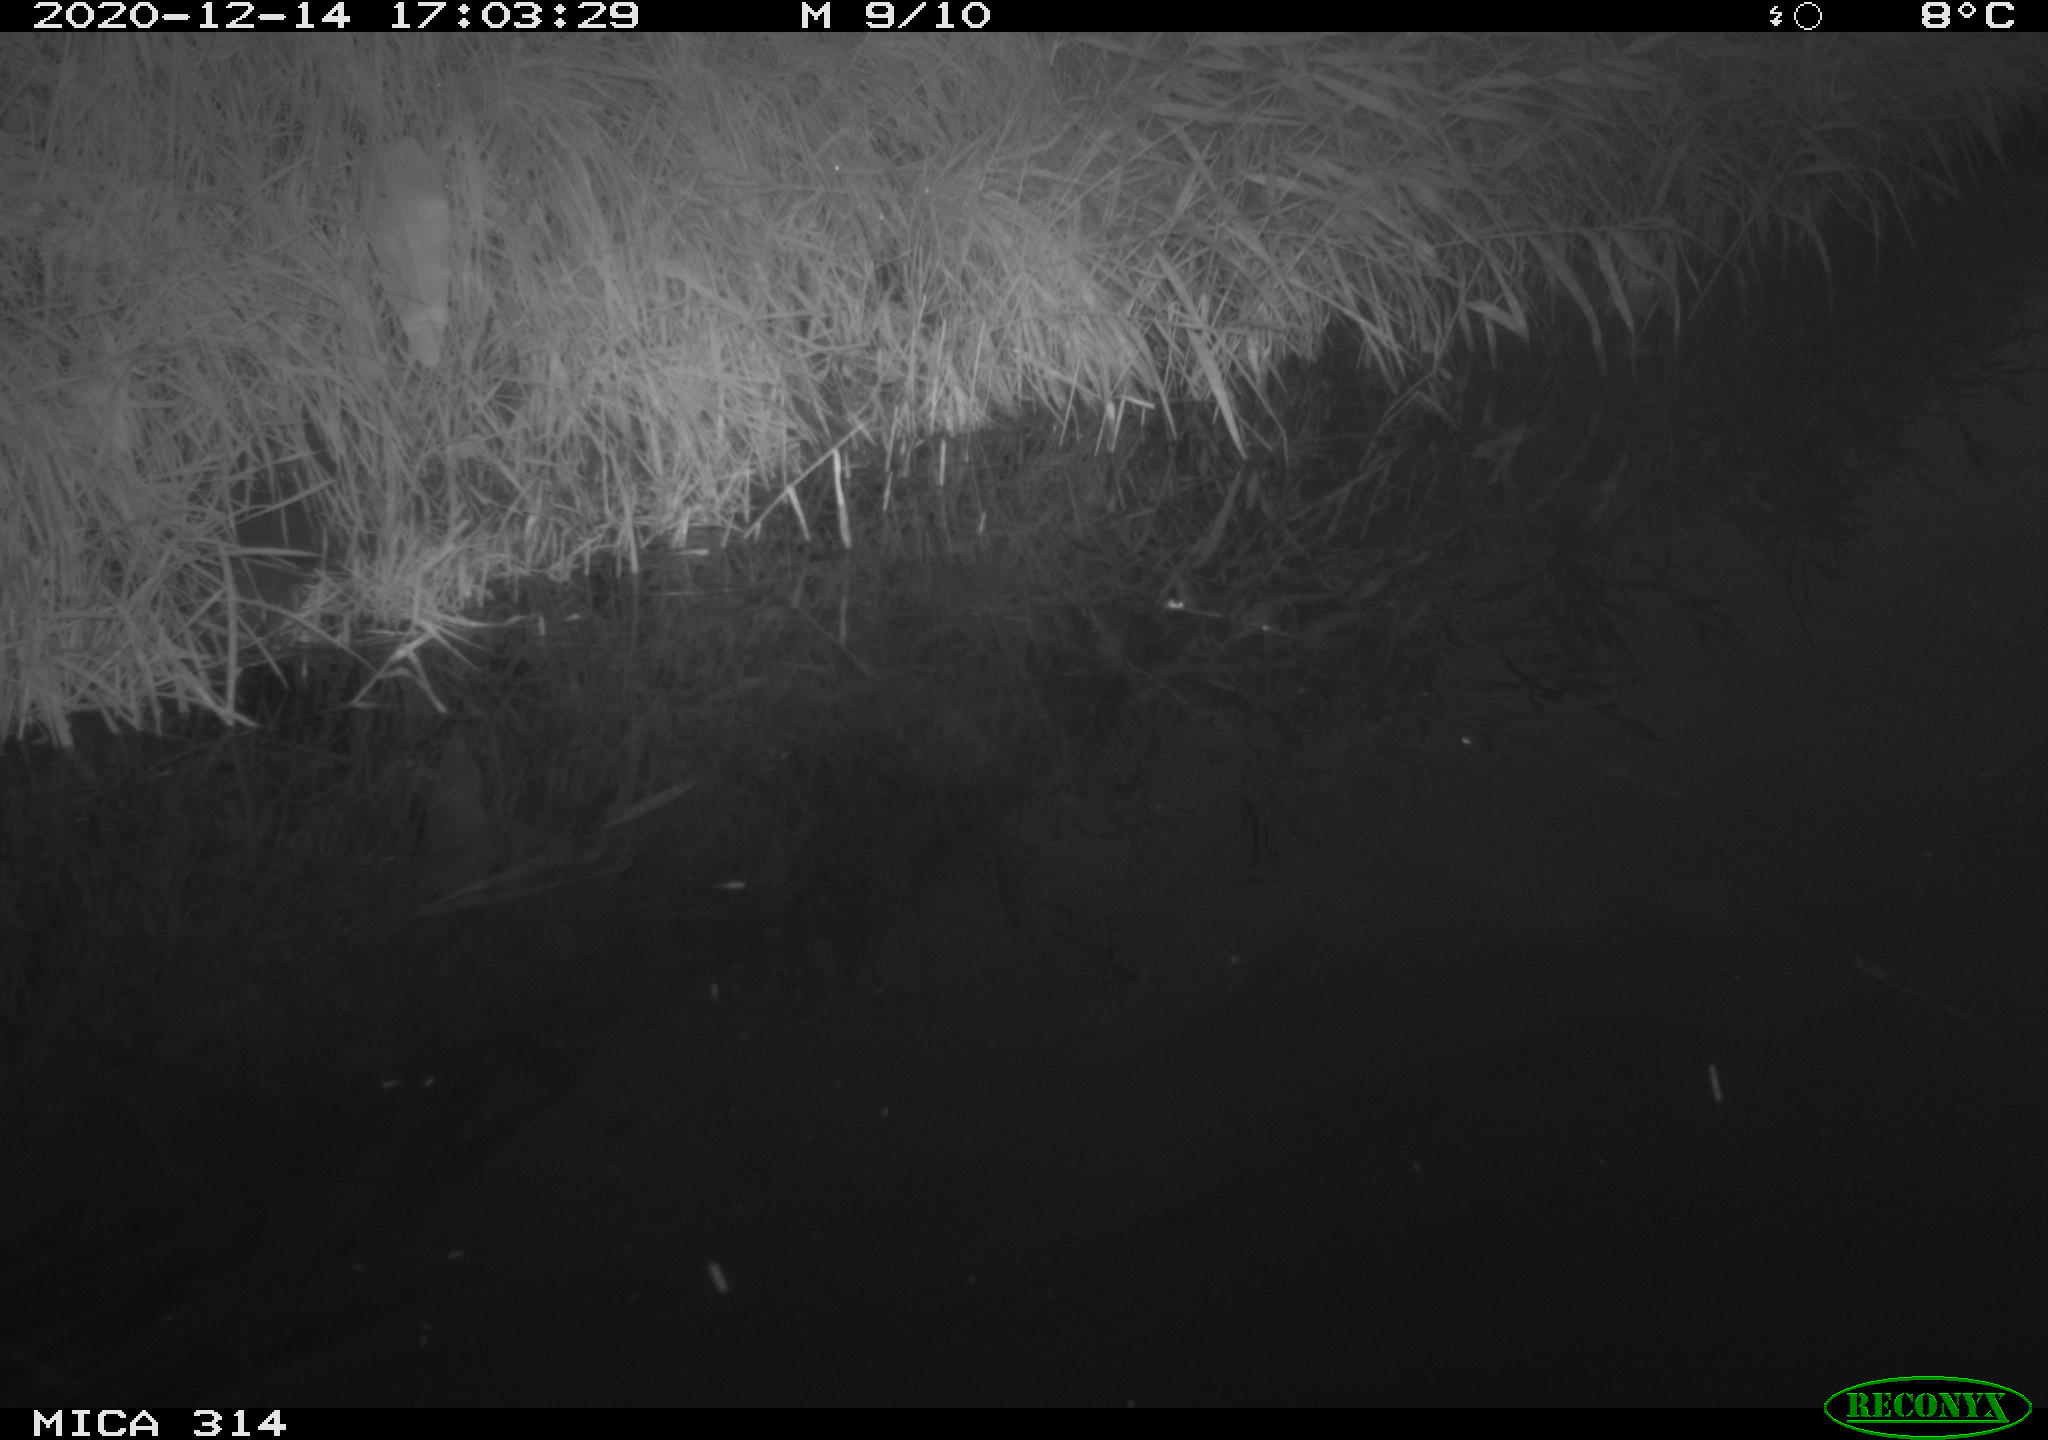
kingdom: Animalia
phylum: Chordata
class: Aves
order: Gruiformes
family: Rallidae
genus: Gallinula
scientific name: Gallinula chloropus
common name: Common moorhen
